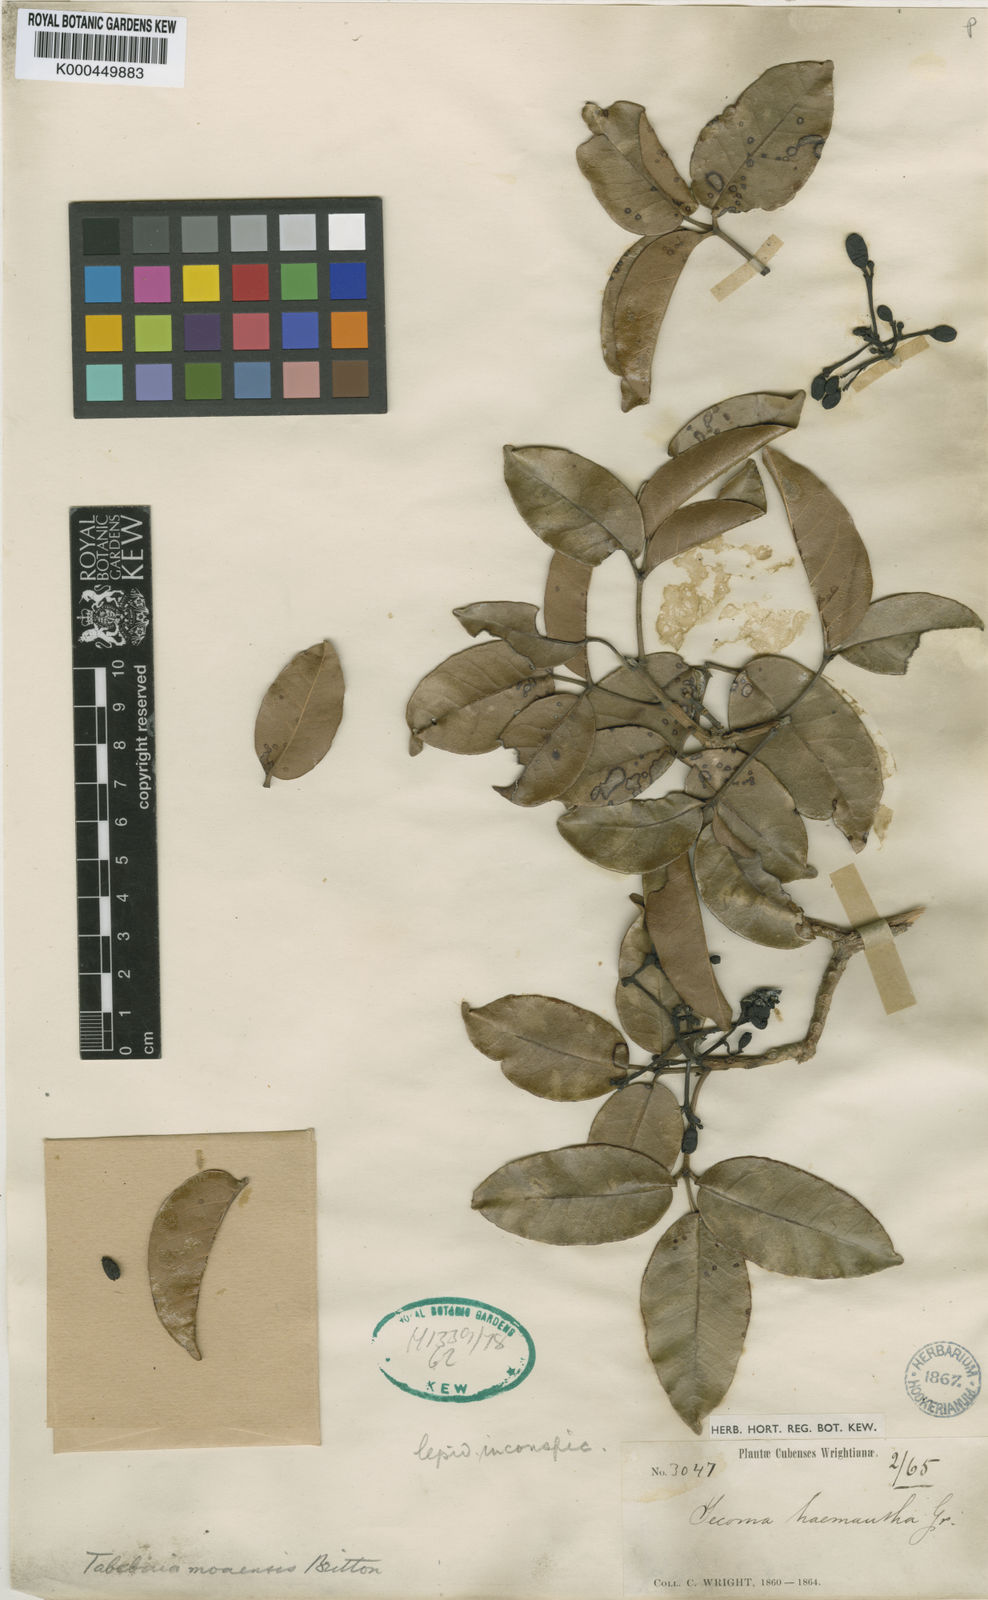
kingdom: Plantae
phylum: Tracheophyta
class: Magnoliopsida
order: Lamiales
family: Bignoniaceae
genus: Tabebuia
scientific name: Tabebuia moaensis
